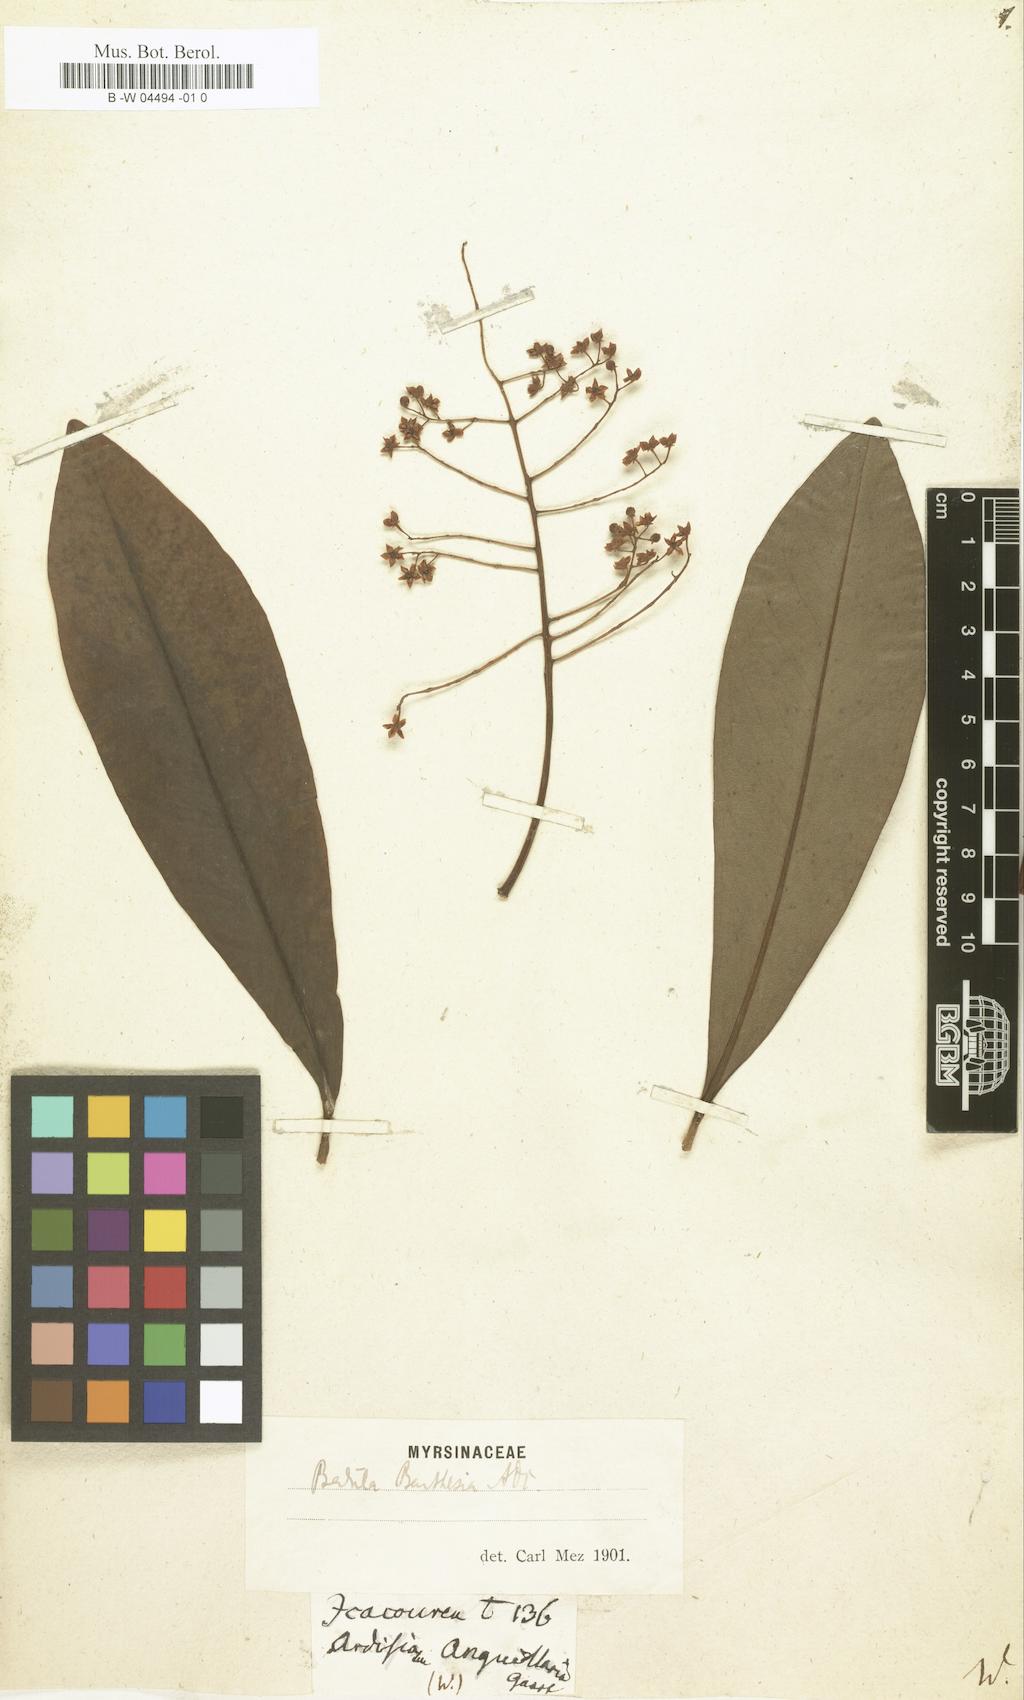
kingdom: Plantae
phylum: Tracheophyta
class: Magnoliopsida
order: Ericales
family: Primulaceae
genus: Ardisia
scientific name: Ardisia
